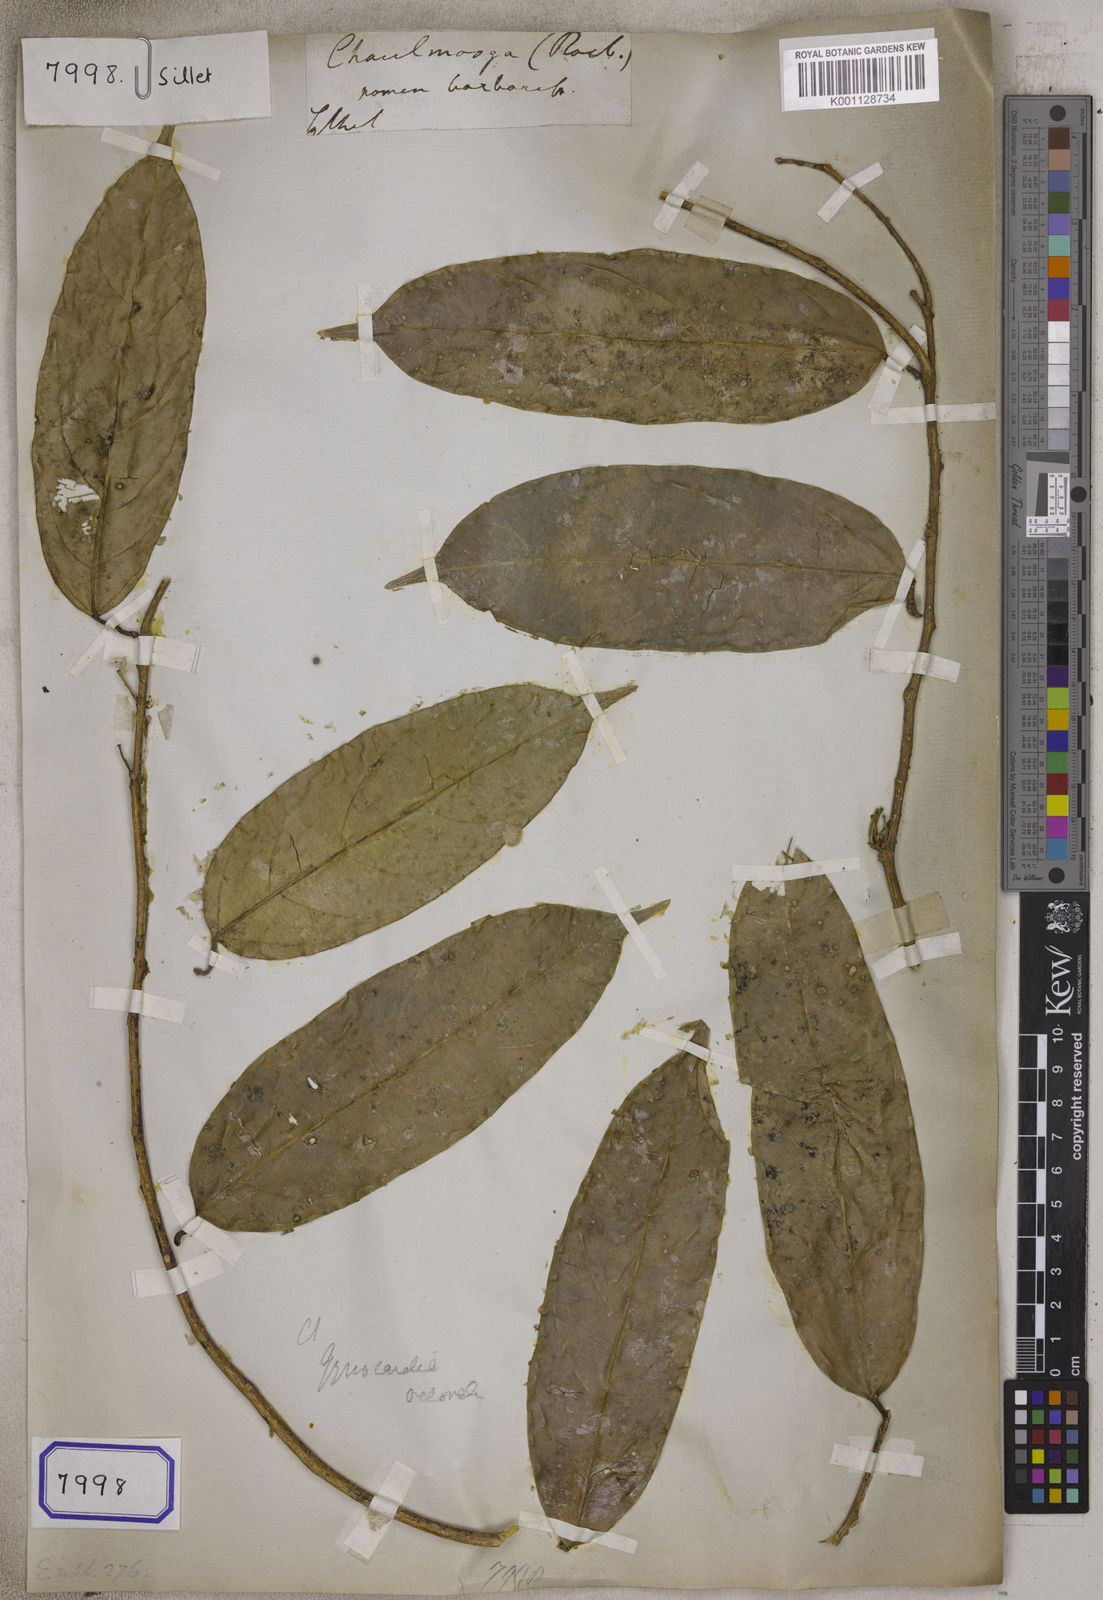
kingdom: Plantae
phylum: Tracheophyta
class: Magnoliopsida
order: Malpighiales
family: Euphorbiaceae
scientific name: Euphorbiaceae
